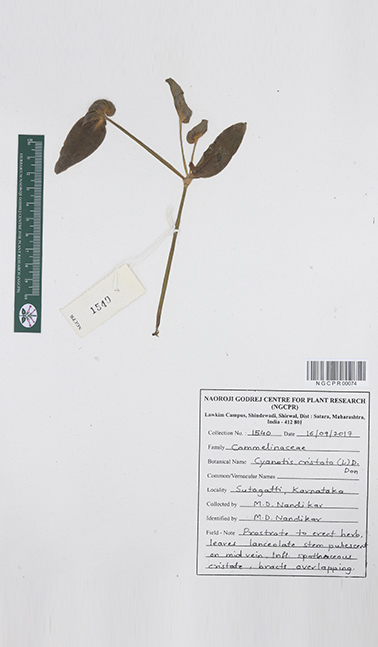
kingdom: Plantae
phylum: Tracheophyta
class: Liliopsida
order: Commelinales
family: Commelinaceae
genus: Cyanotis
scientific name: Cyanotis cristata
